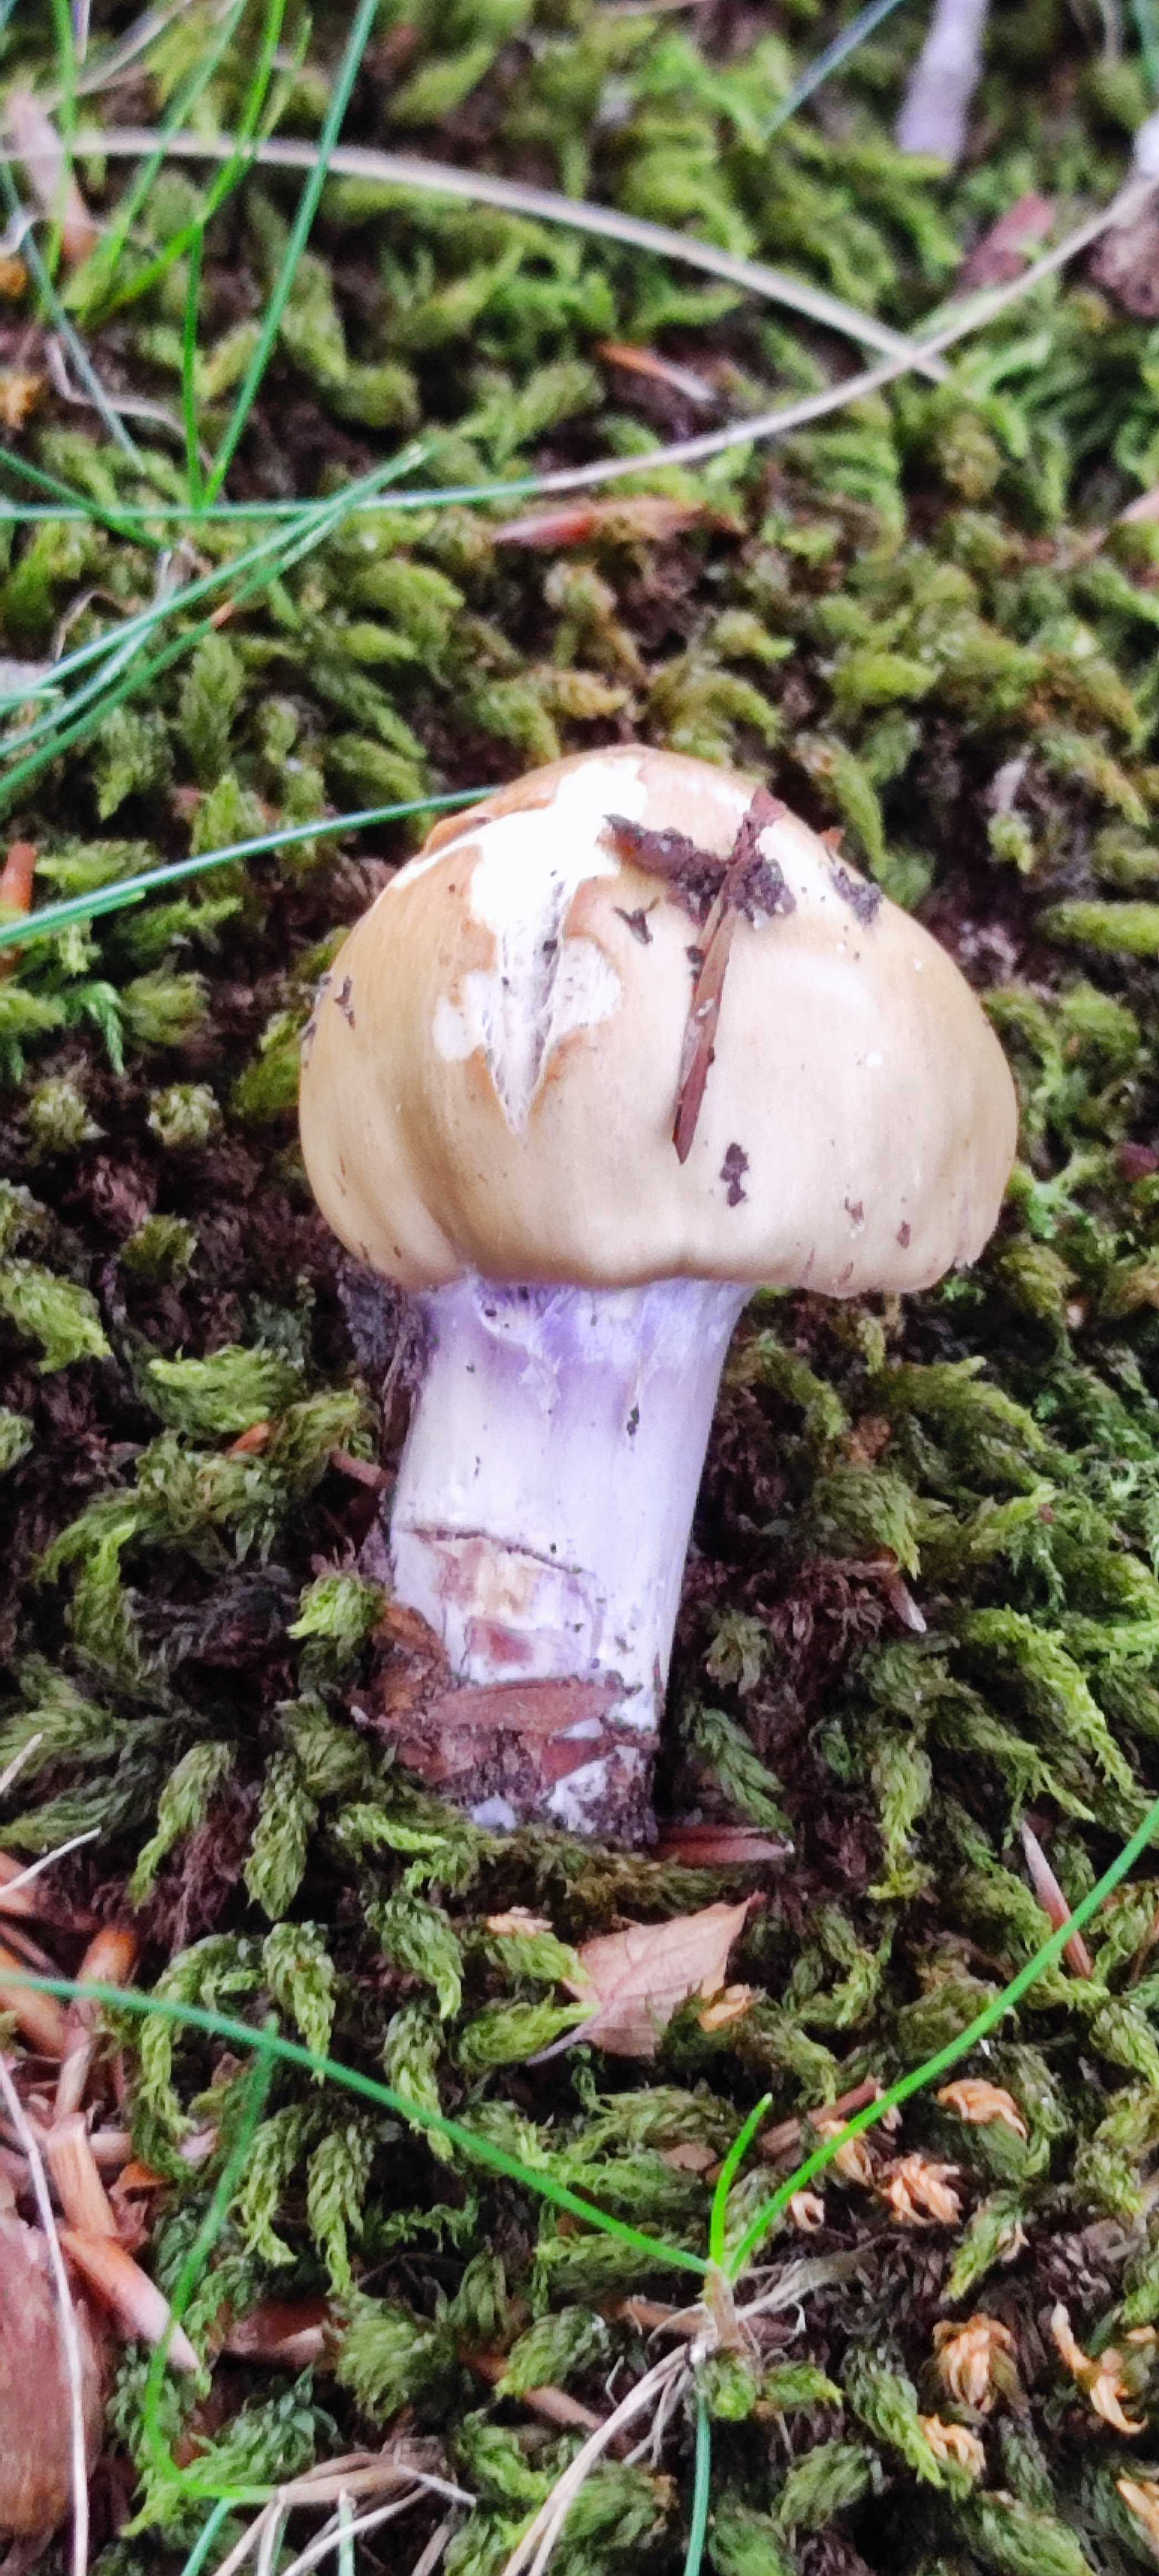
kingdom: Fungi
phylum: Basidiomycota
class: Agaricomycetes
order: Agaricales
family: Cortinariaceae
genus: Cortinarius
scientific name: Cortinarius elatior
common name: høj slørhat
